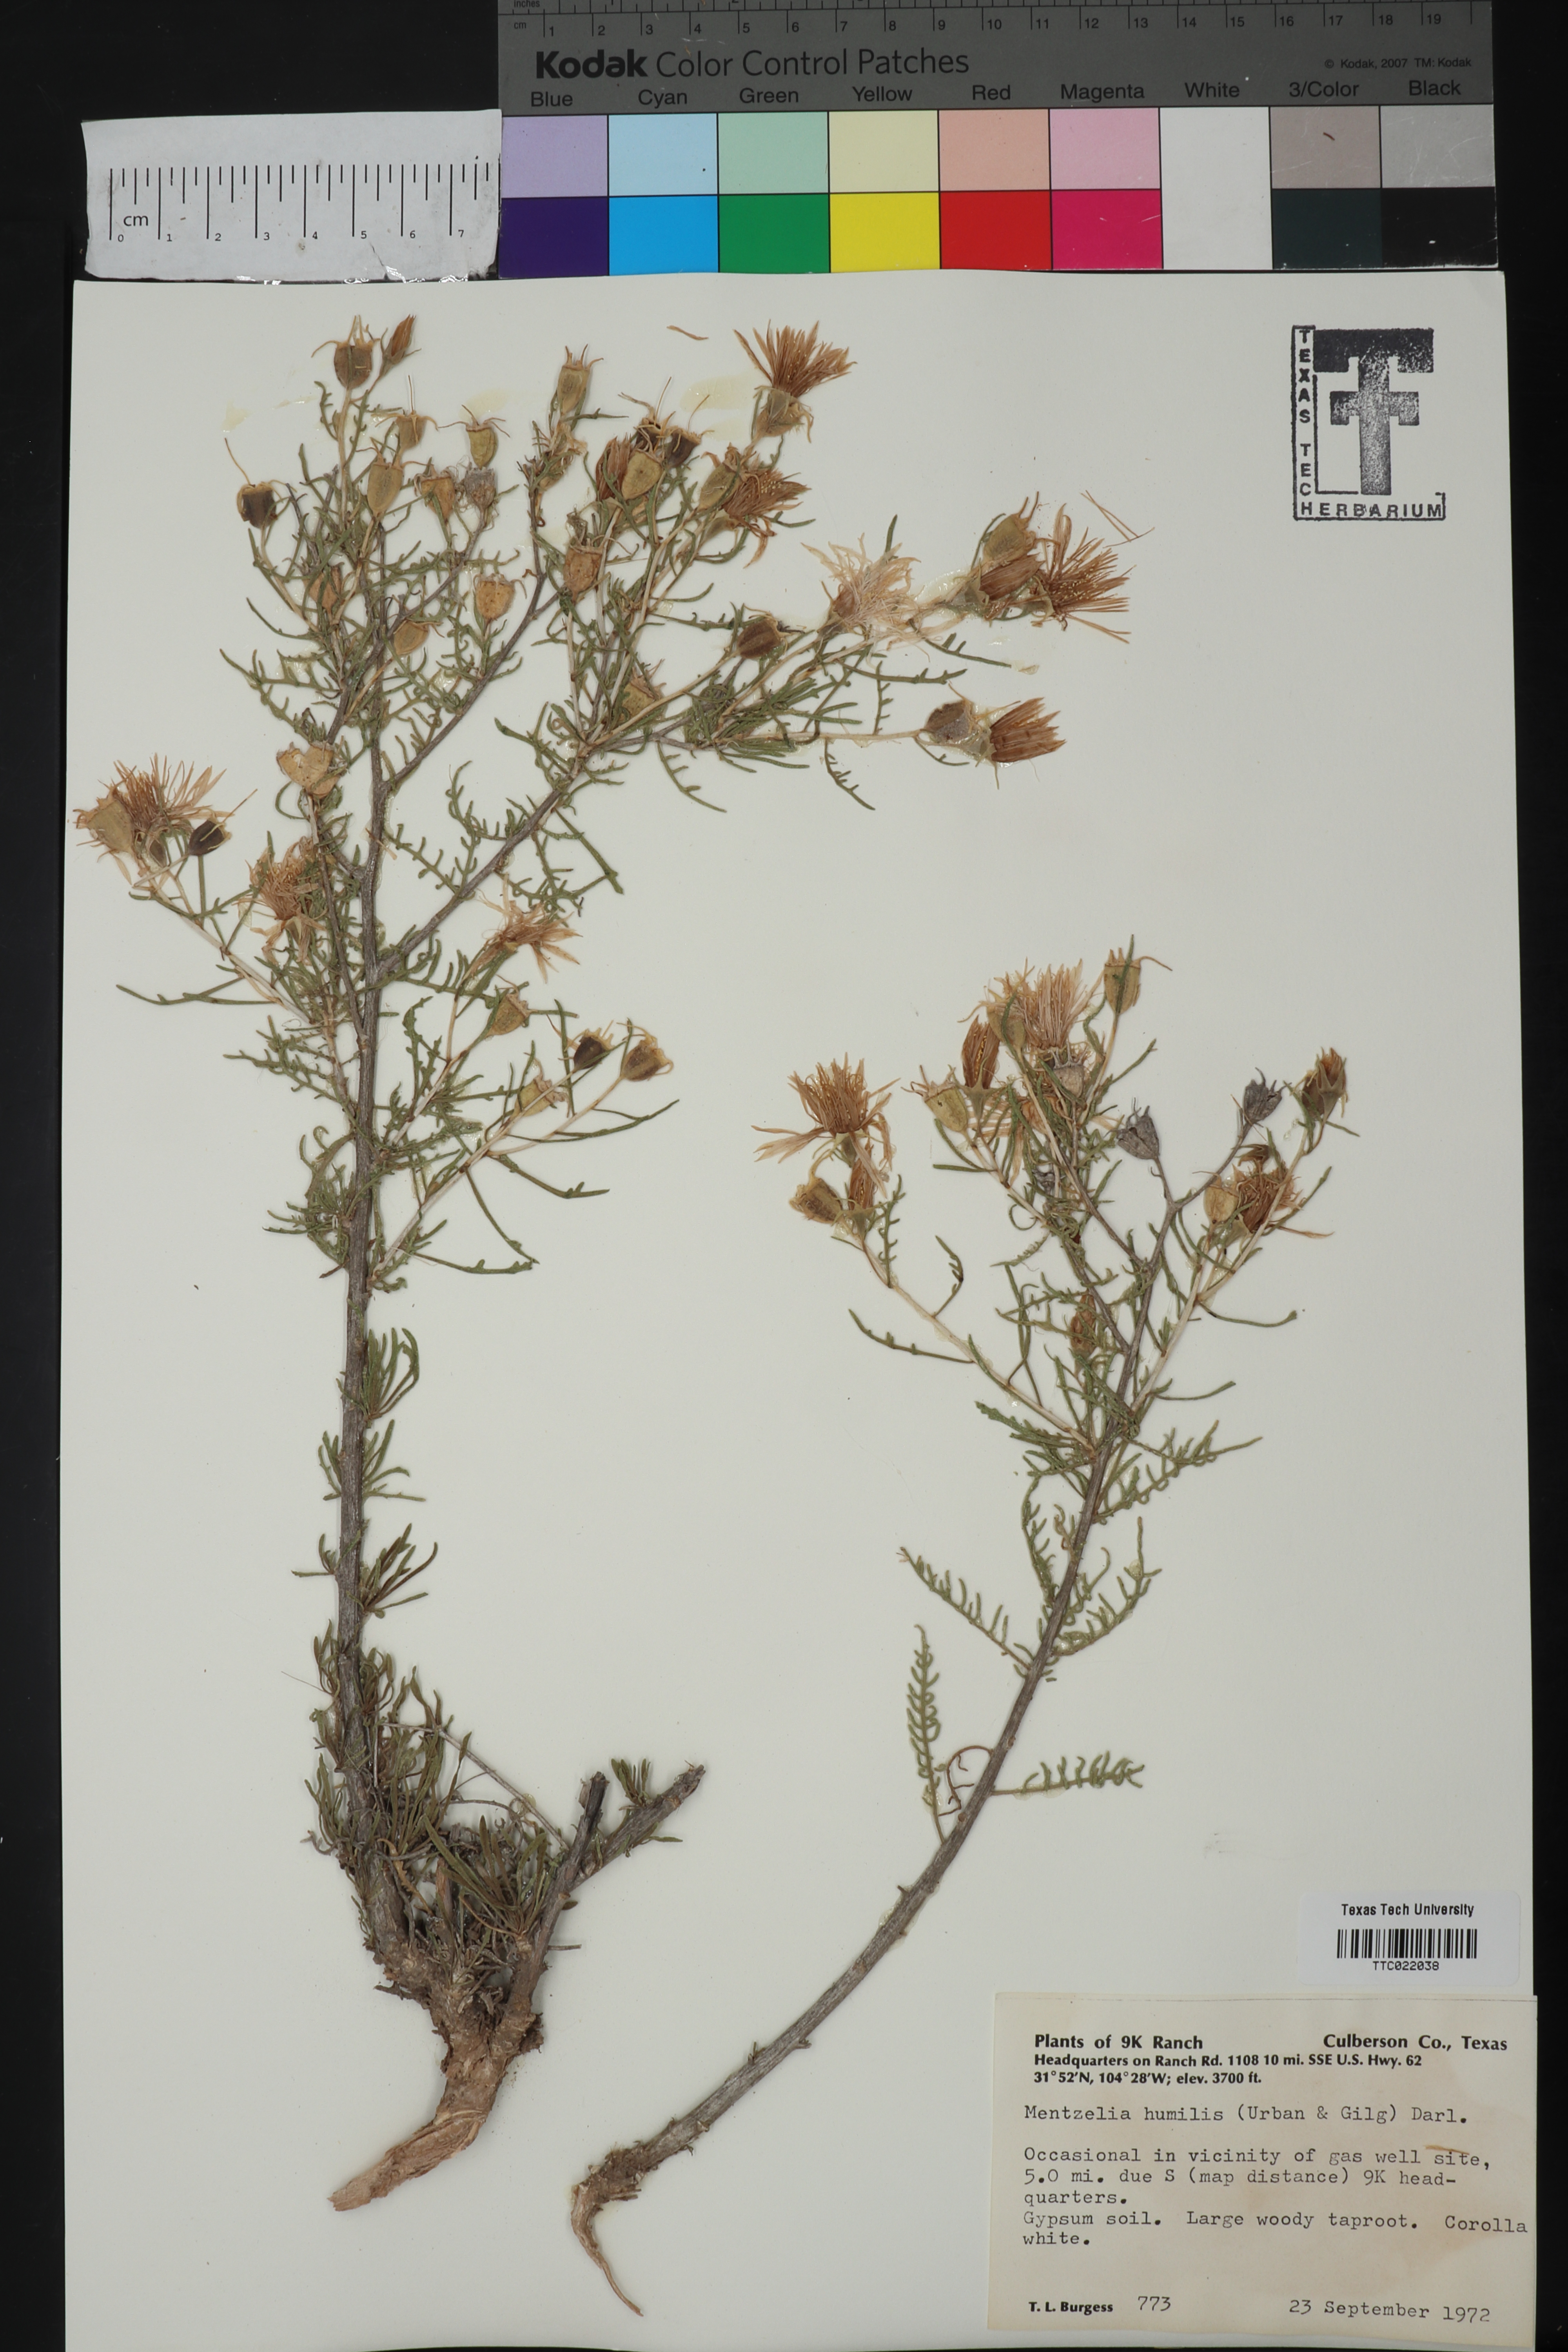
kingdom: Plantae
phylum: Tracheophyta
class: Magnoliopsida
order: Cornales
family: Loasaceae
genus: Mentzelia
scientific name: Mentzelia humilis
